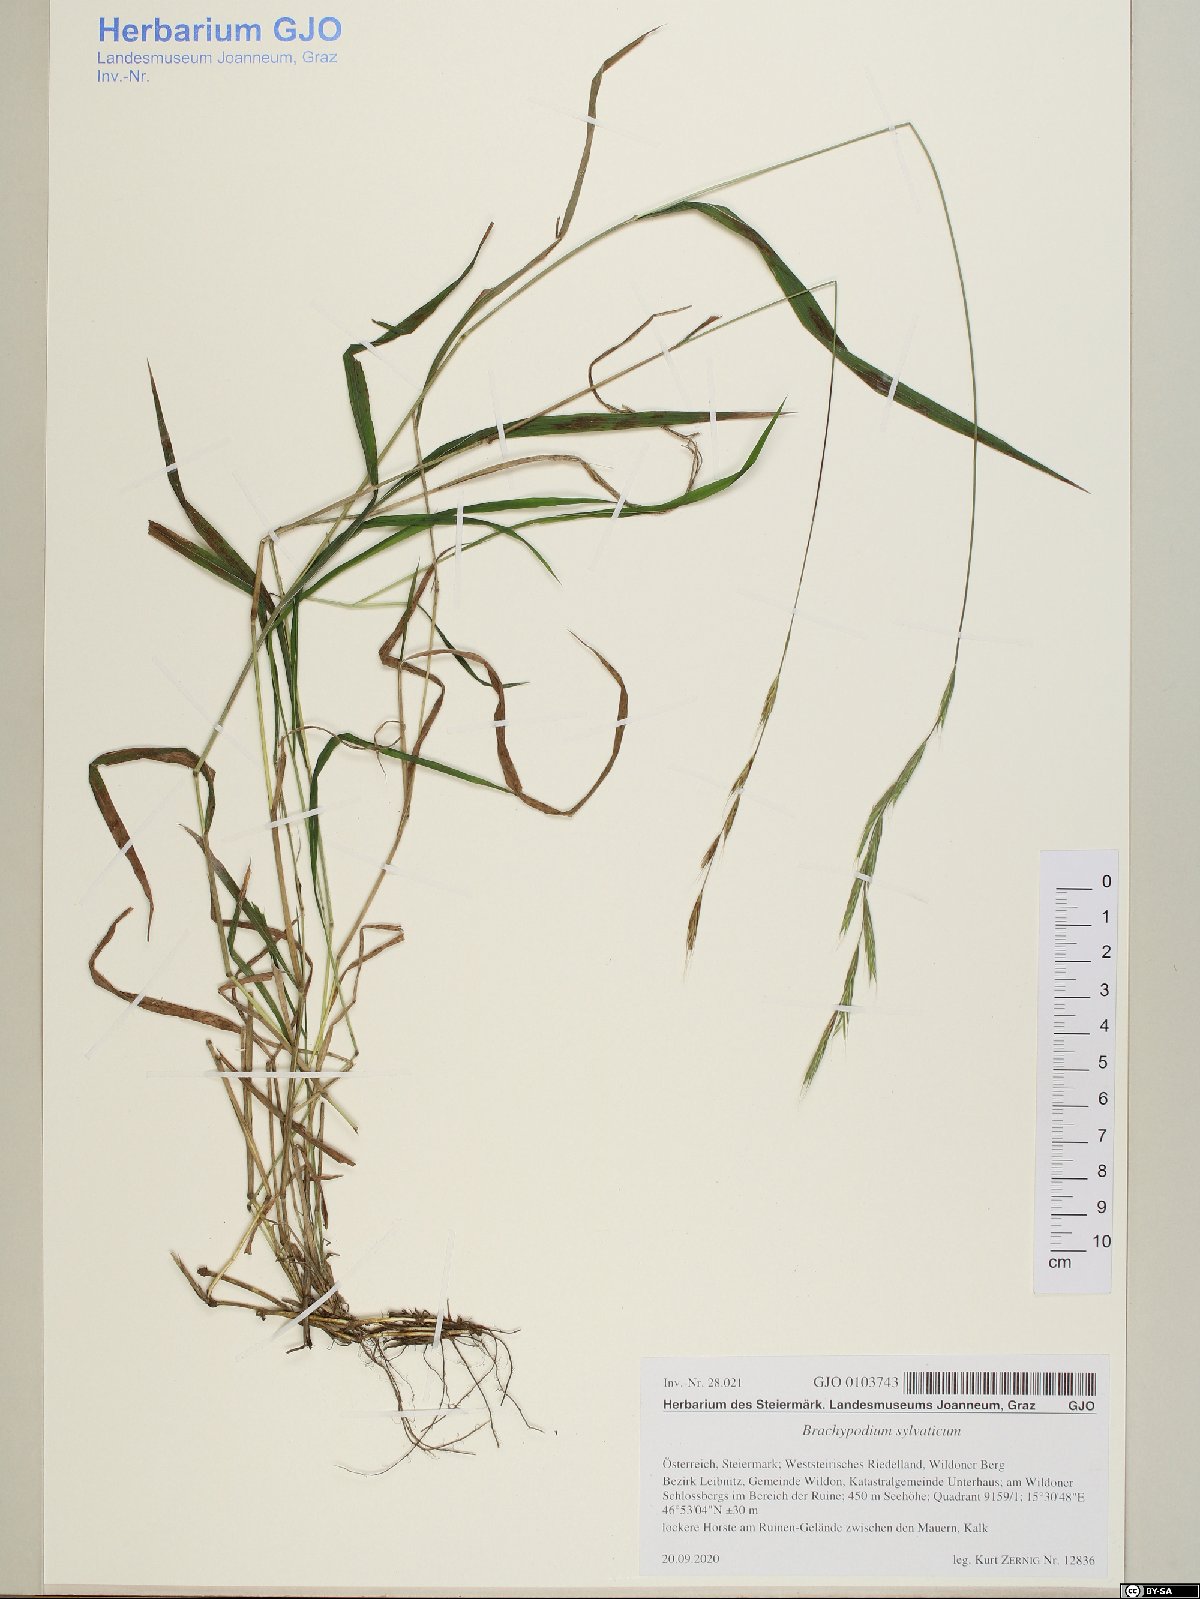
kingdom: Plantae
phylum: Tracheophyta
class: Liliopsida
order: Poales
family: Poaceae
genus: Brachypodium
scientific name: Brachypodium sylvaticum
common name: False-brome
